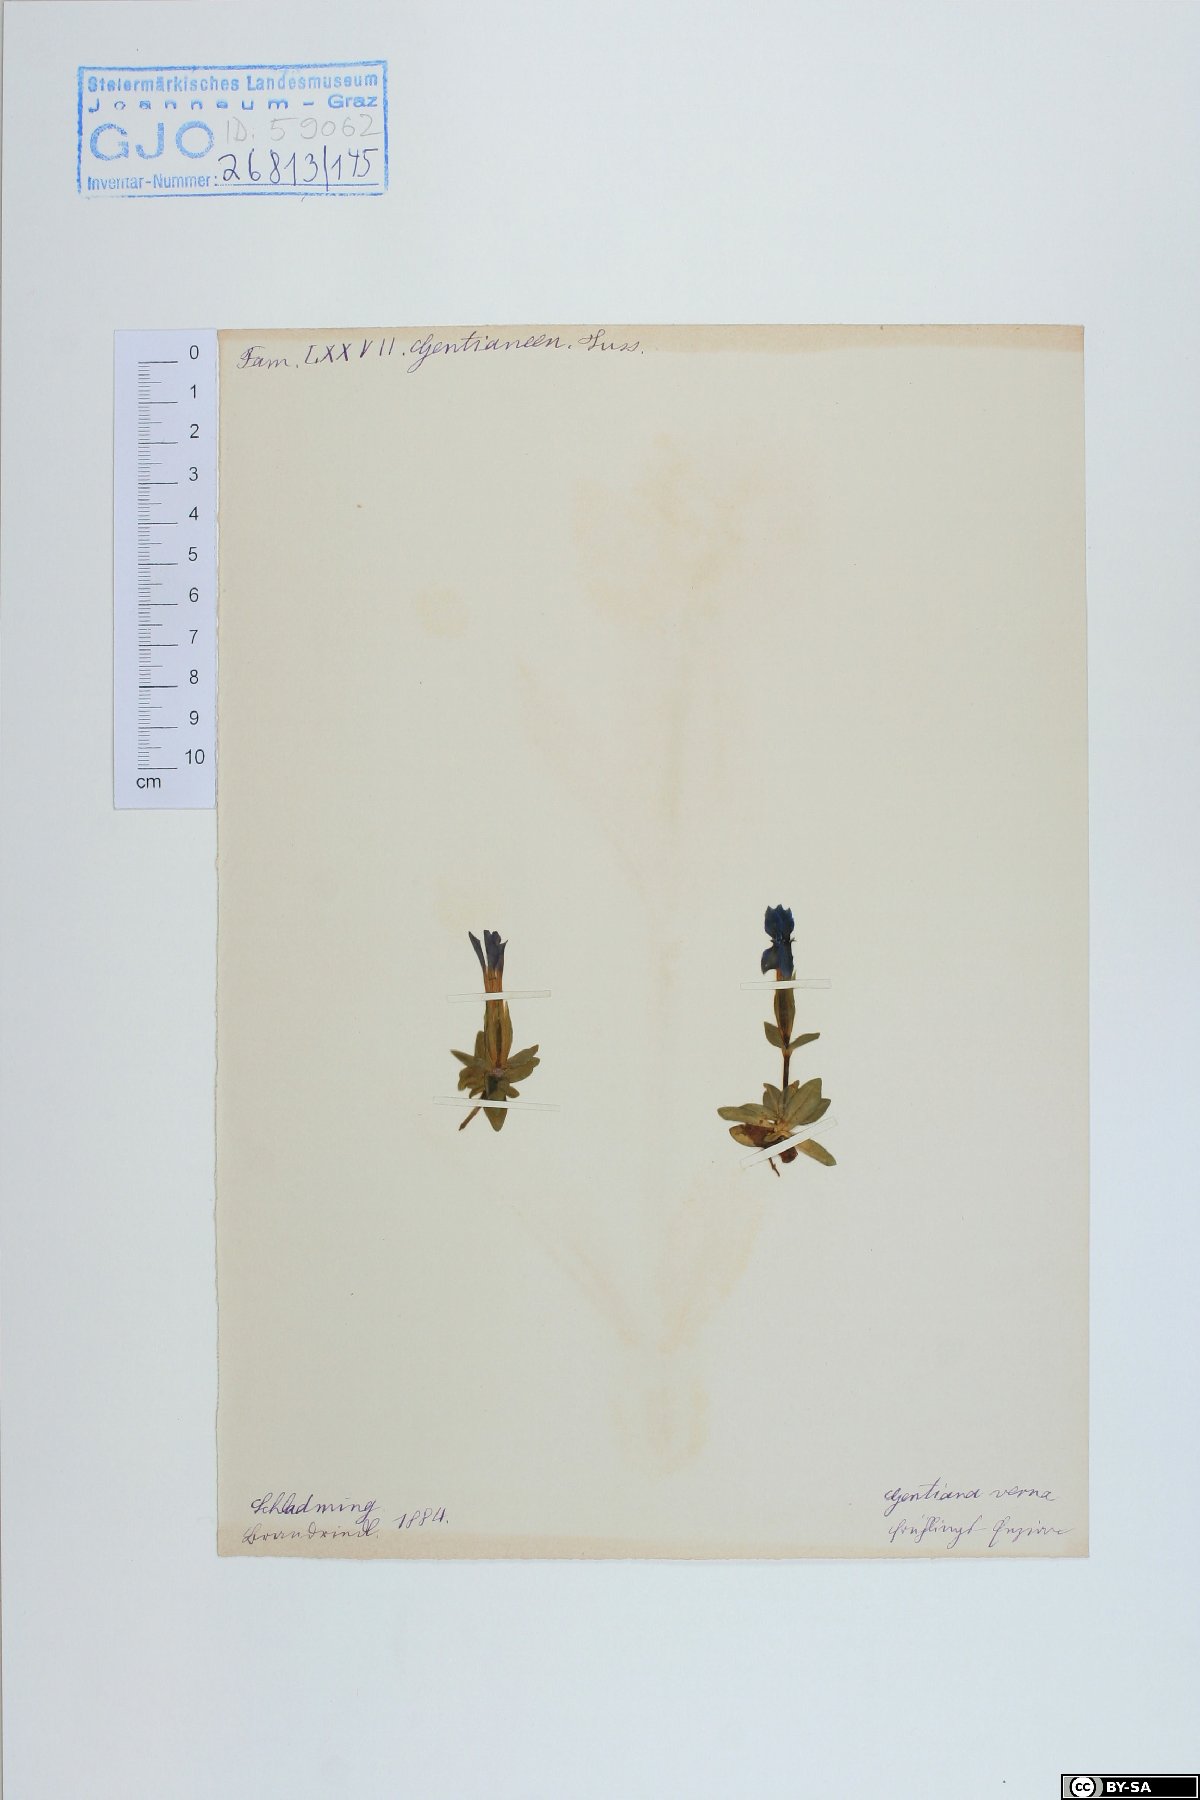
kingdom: Plantae
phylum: Tracheophyta
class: Magnoliopsida
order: Gentianales
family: Gentianaceae
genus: Gentiana
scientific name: Gentiana verna
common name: Spring gentian
